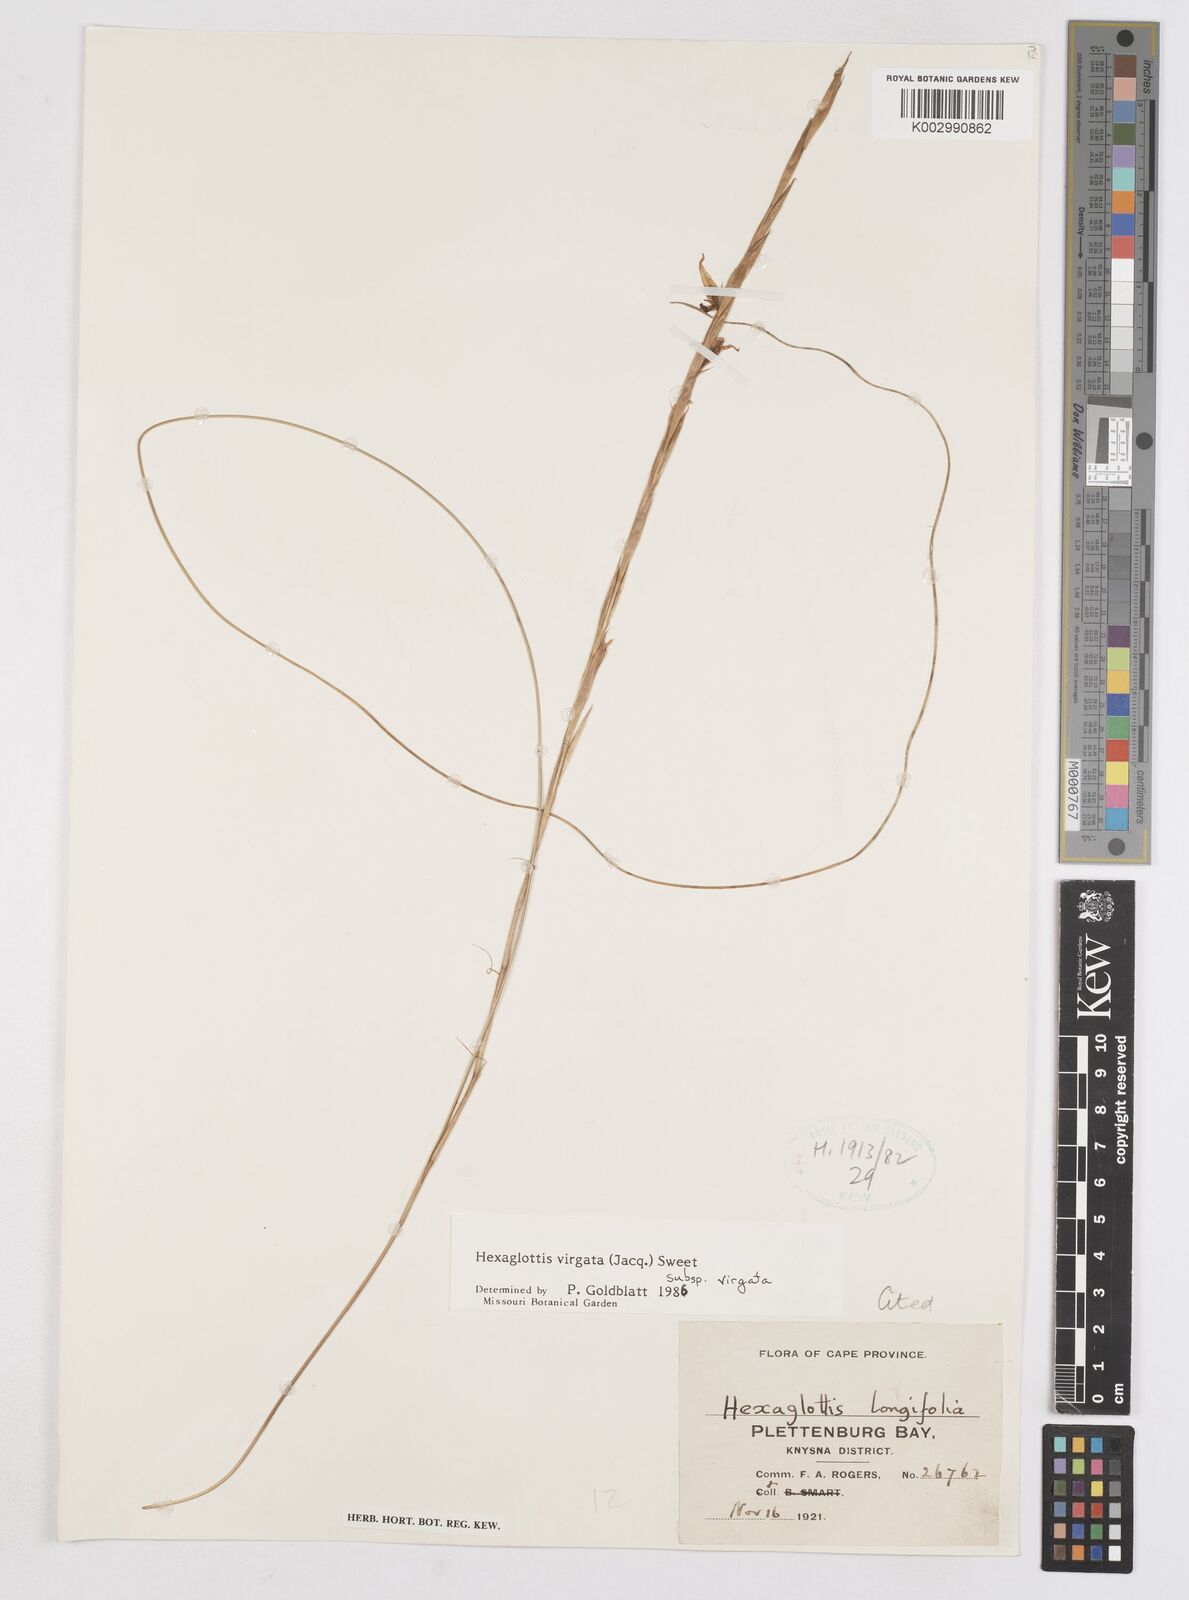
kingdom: Plantae
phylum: Tracheophyta
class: Liliopsida
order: Asparagales
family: Iridaceae
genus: Moraea
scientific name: Moraea virgata
